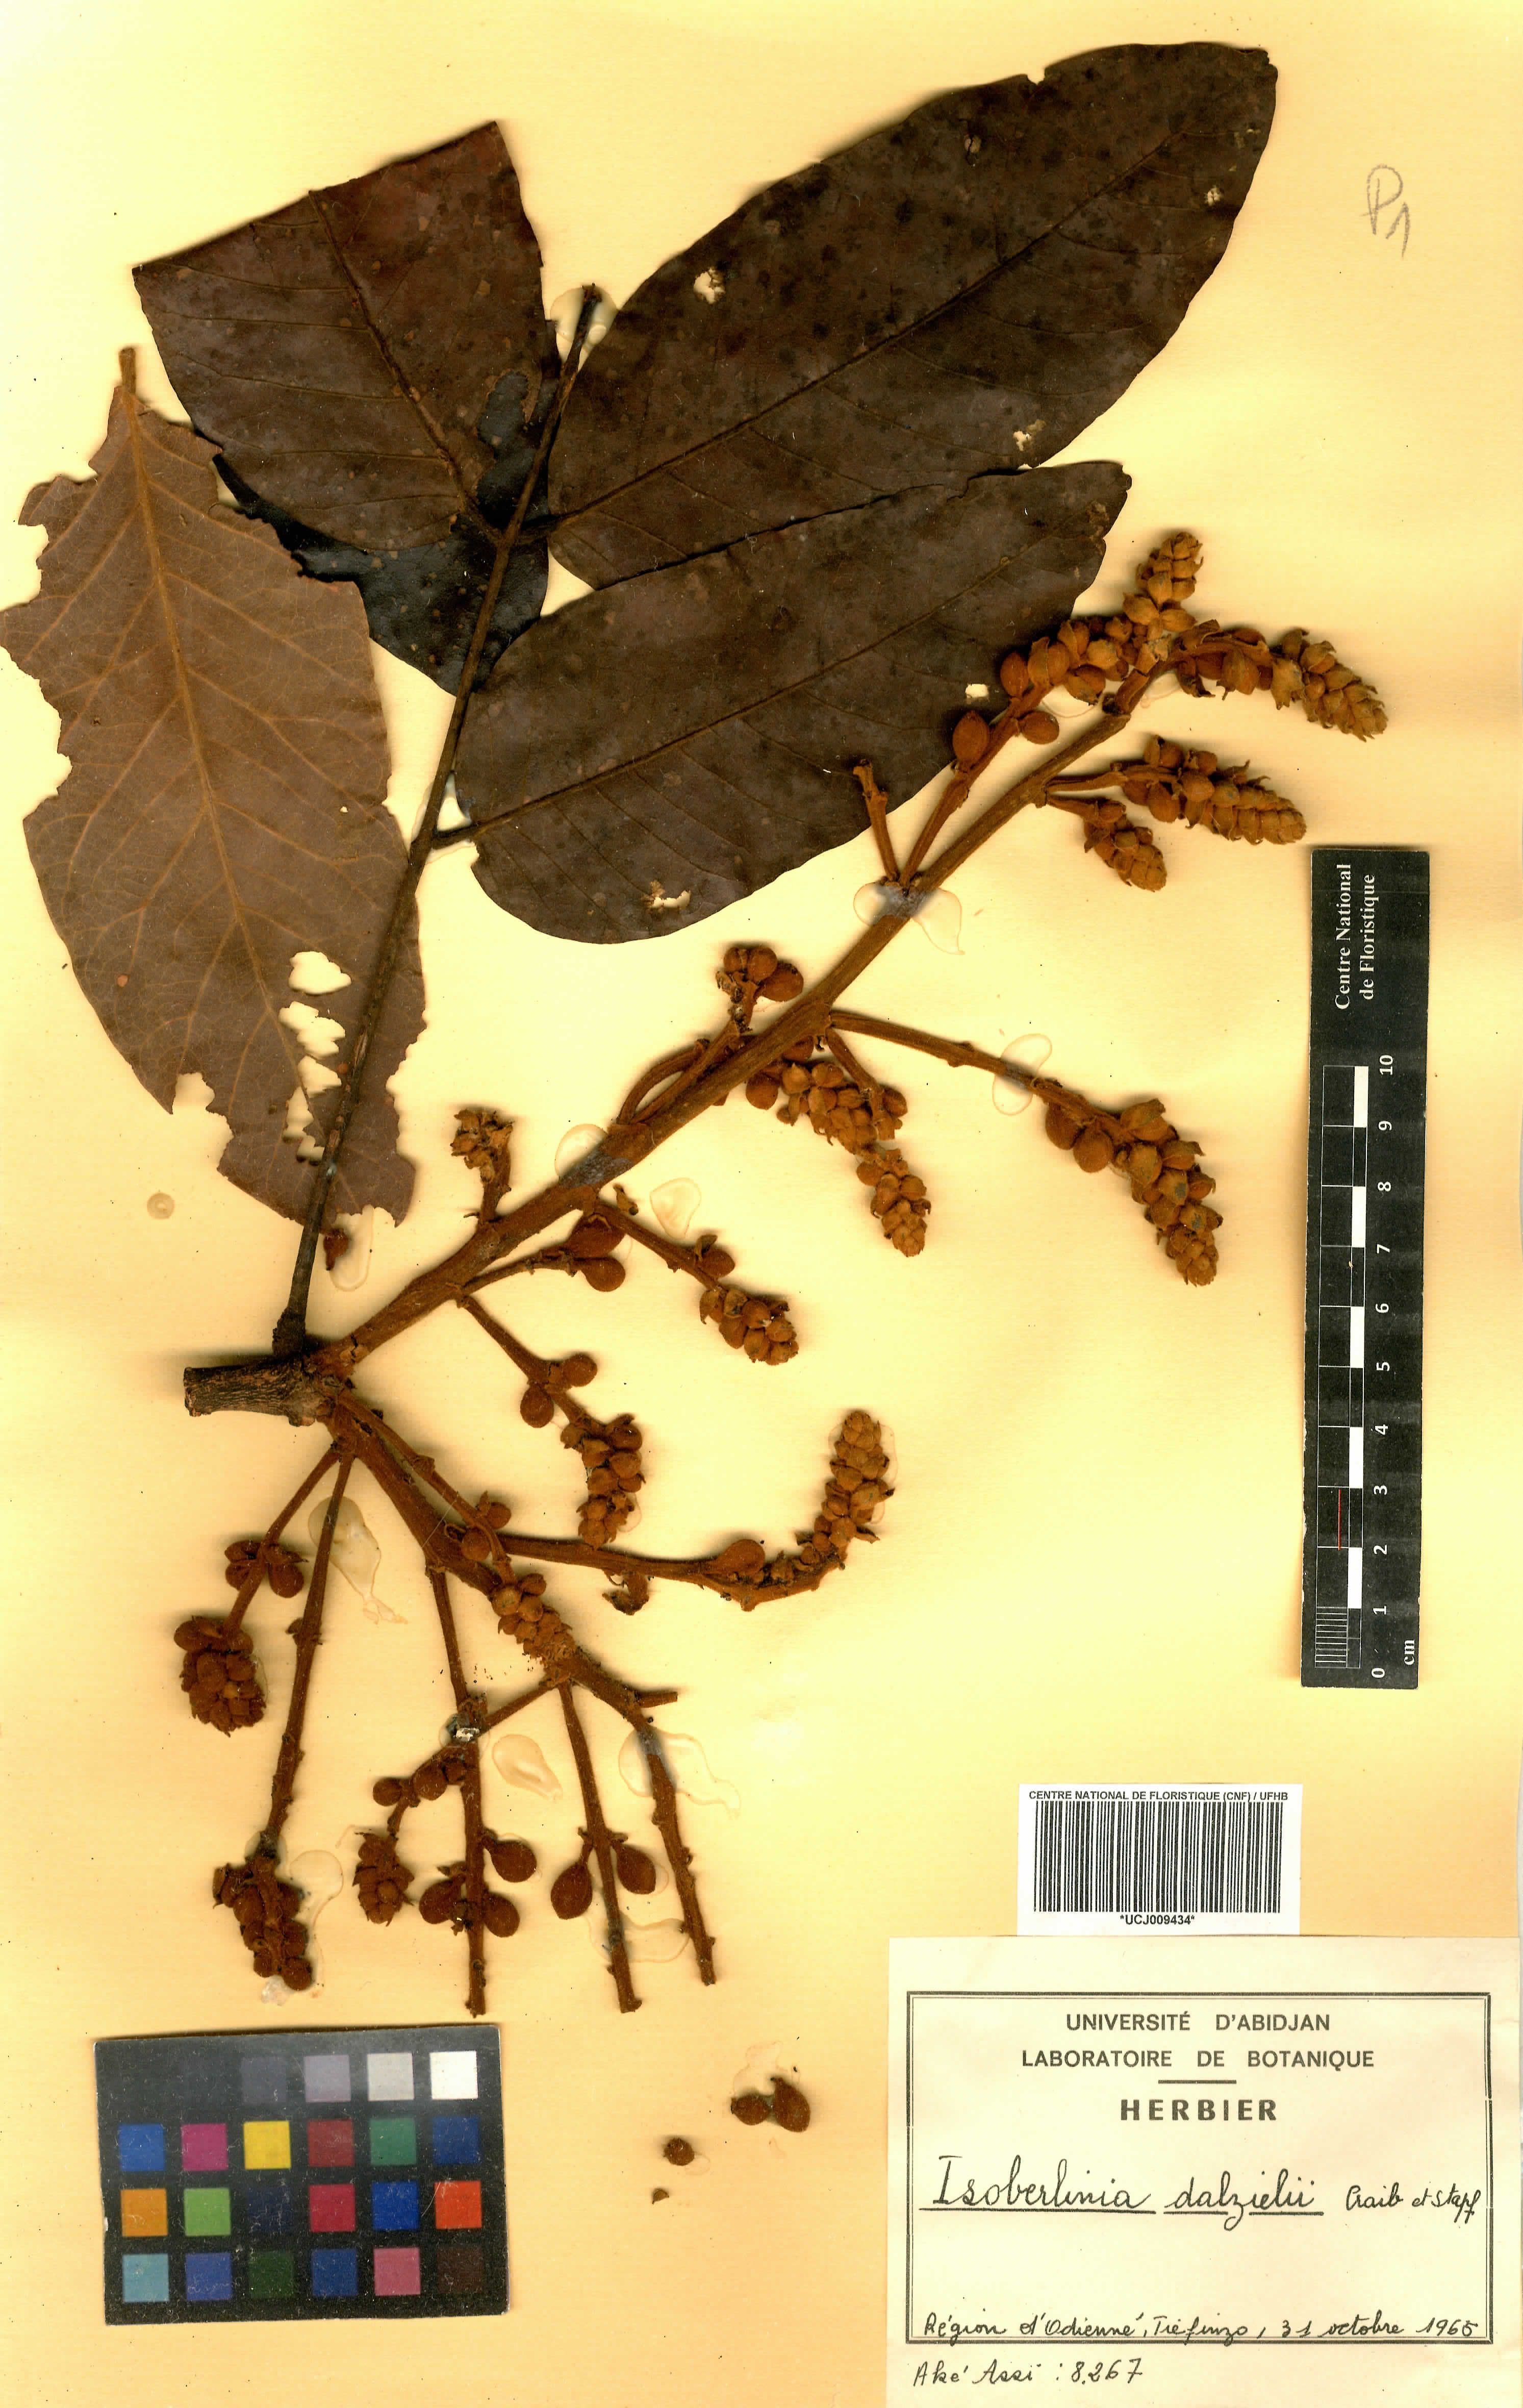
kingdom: Plantae
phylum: Tracheophyta
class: Magnoliopsida
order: Fabales
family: Fabaceae
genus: Isoberlinia
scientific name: Isoberlinia tomentosa
